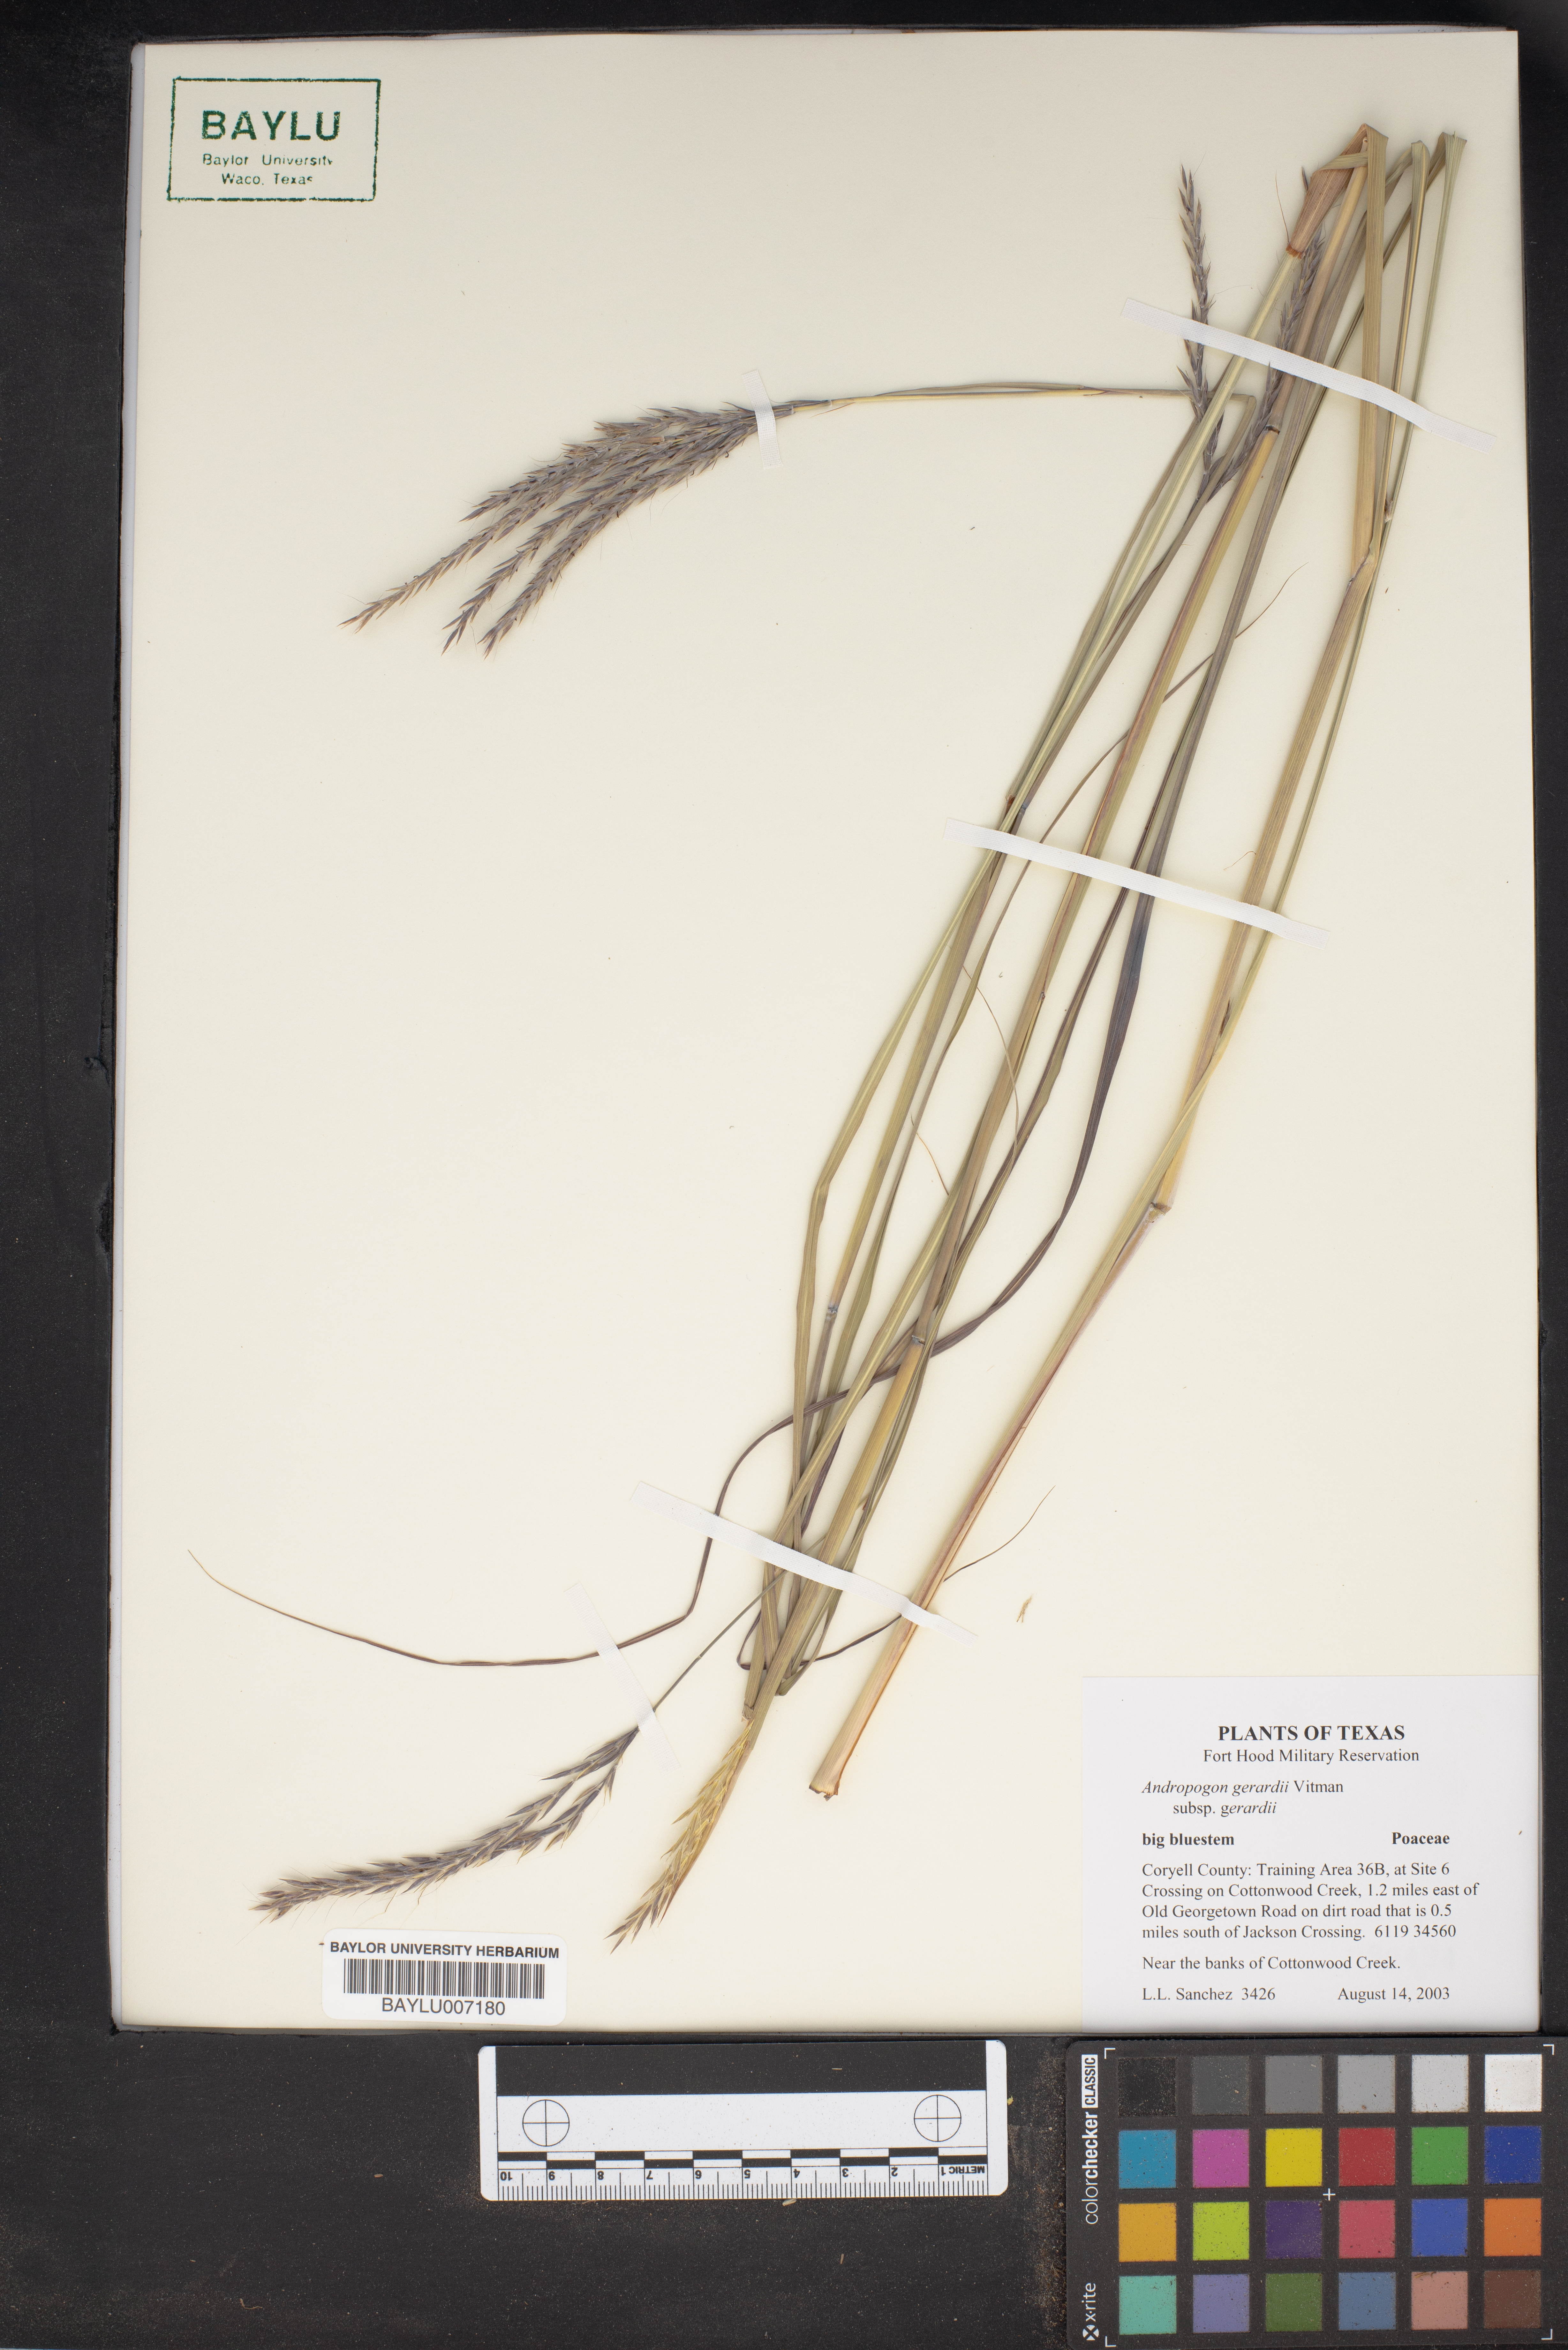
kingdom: Plantae
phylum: Tracheophyta
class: Liliopsida
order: Poales
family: Poaceae
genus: Andropogon
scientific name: Andropogon gerardi
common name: Big bluestem
